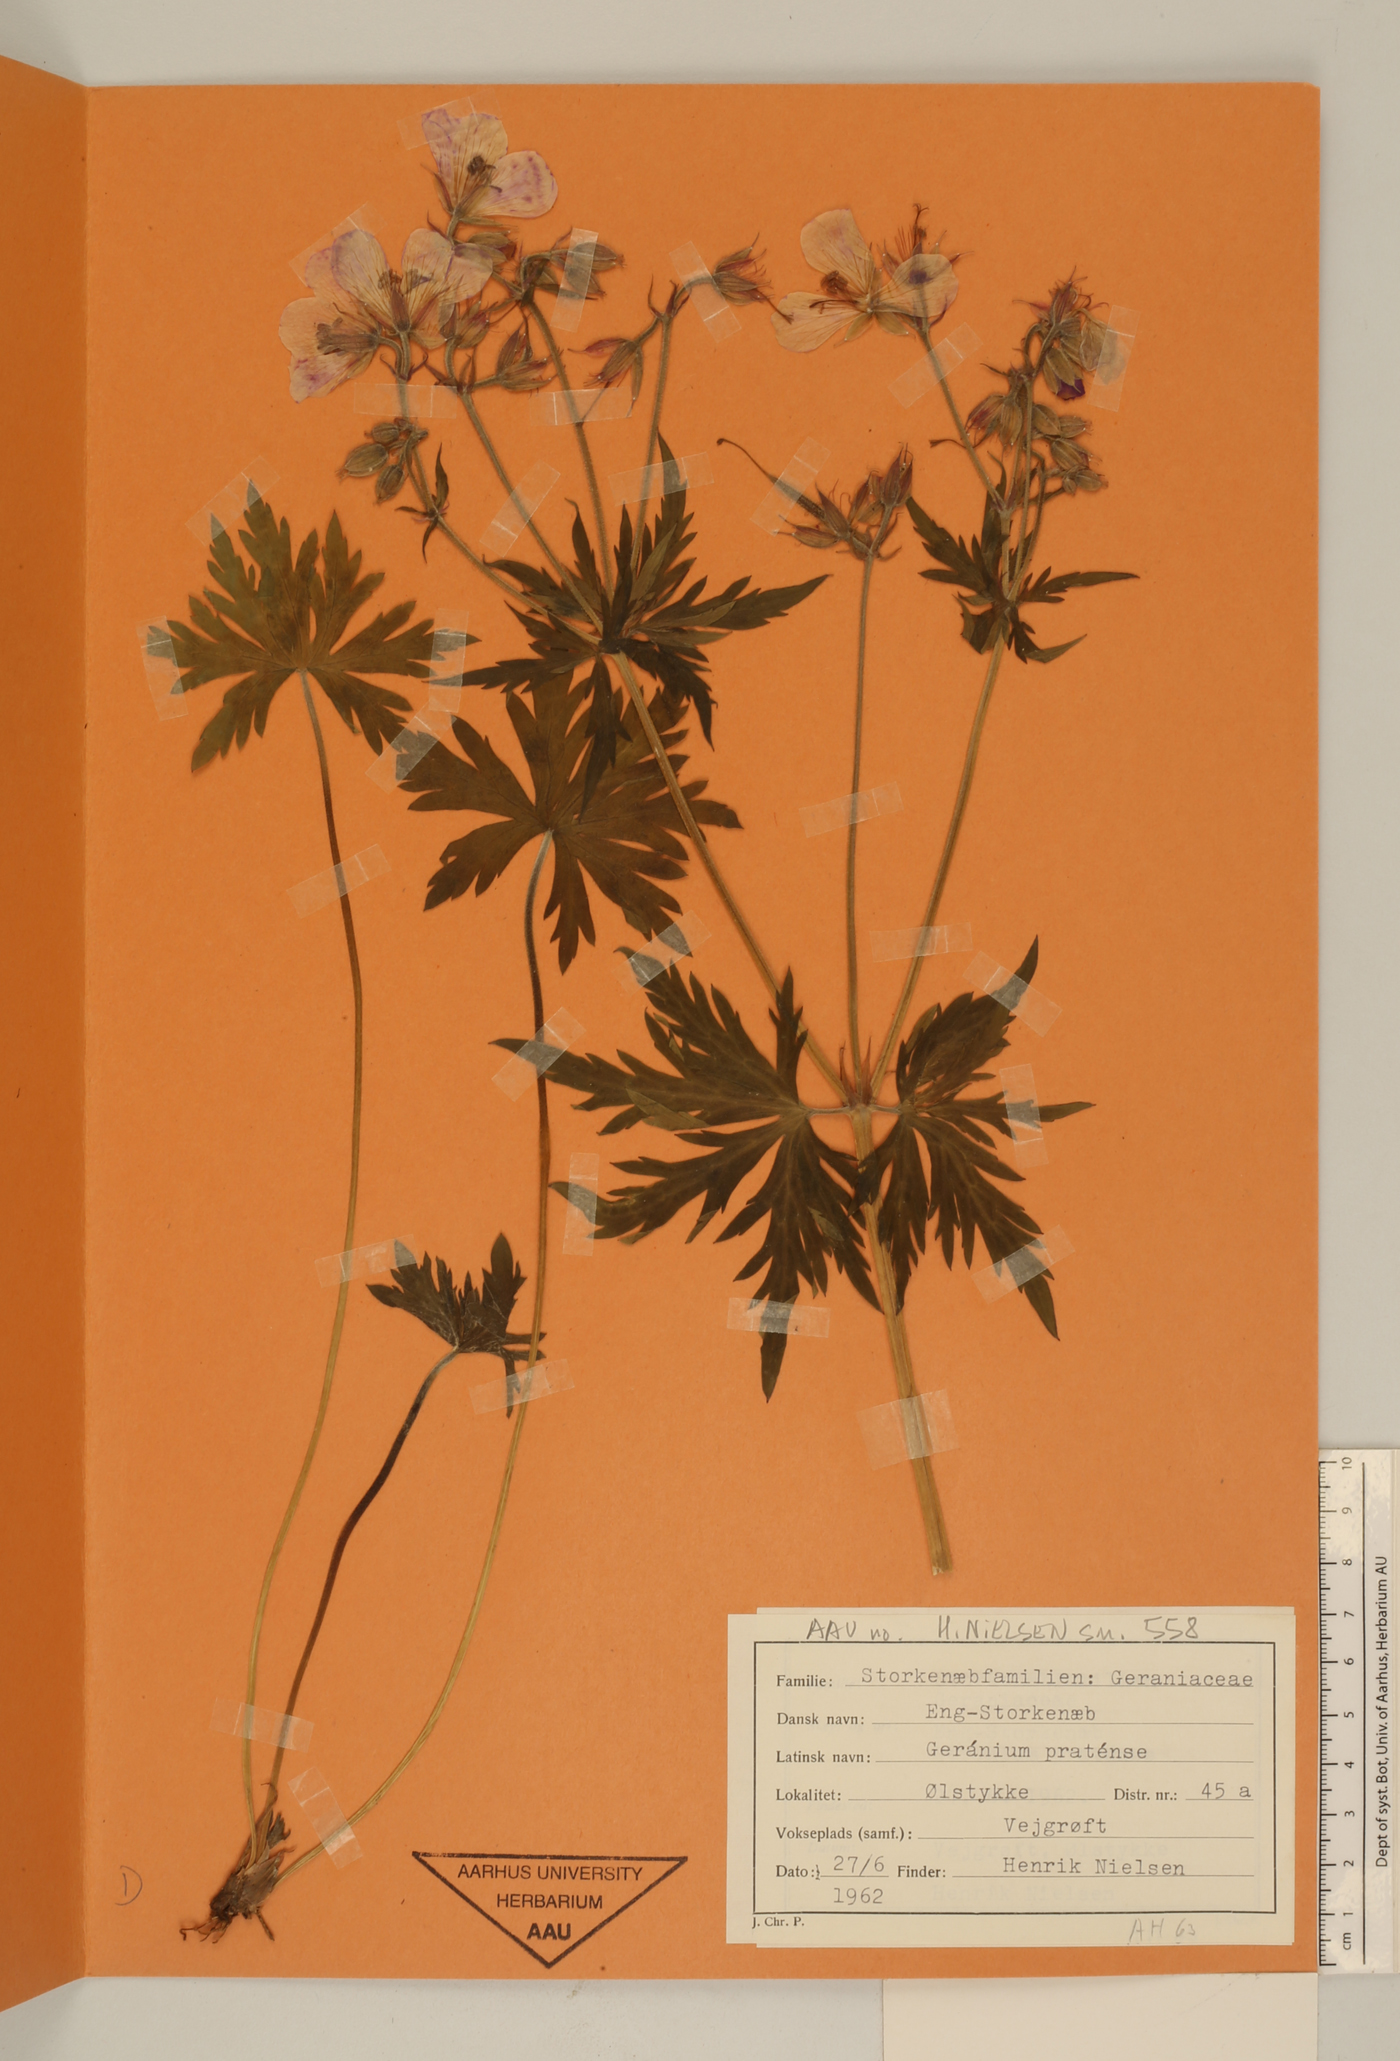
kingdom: Plantae
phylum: Tracheophyta
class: Magnoliopsida
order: Geraniales
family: Geraniaceae
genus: Geranium
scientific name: Geranium pratense
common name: Meadow crane's-bill
